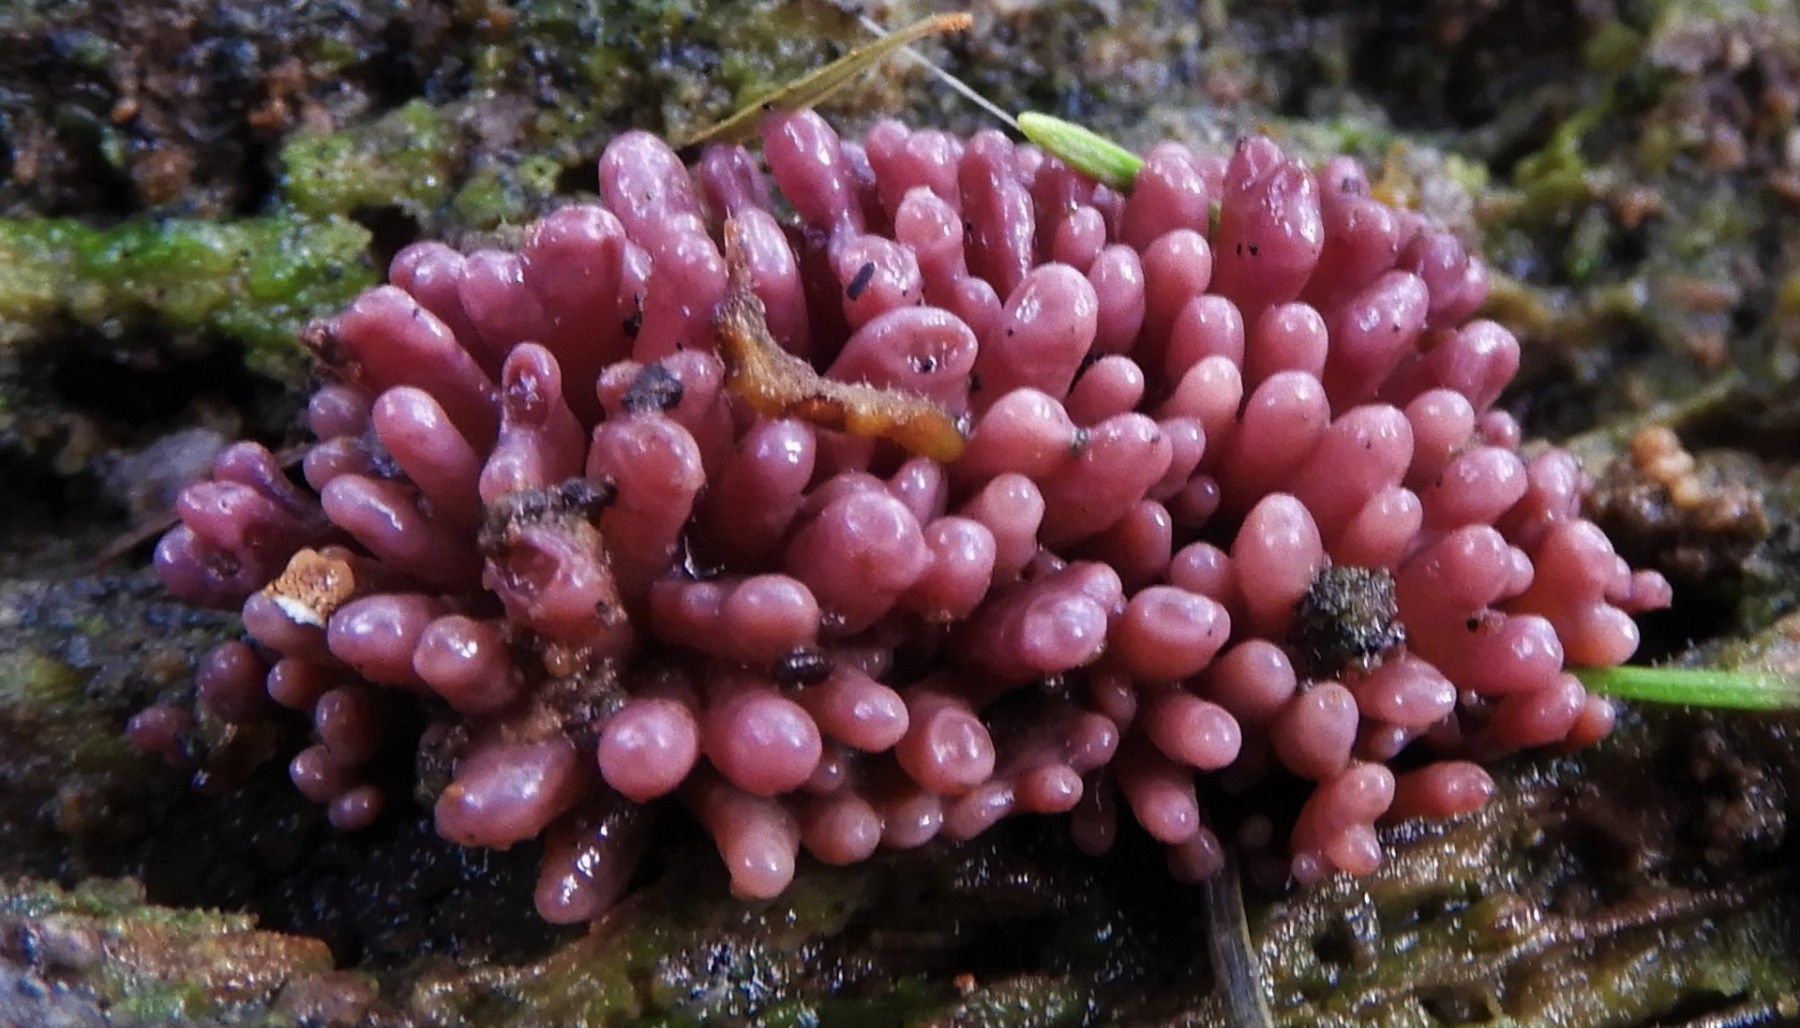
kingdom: Fungi
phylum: Ascomycota
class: Leotiomycetes
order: Helotiales
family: Gelatinodiscaceae
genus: Ascocoryne
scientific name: Ascocoryne sarcoides
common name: rødlilla sejskive
